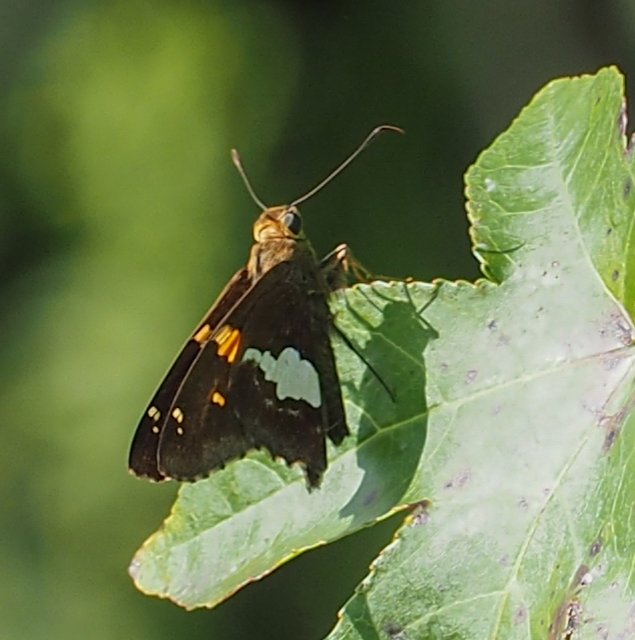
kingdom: Animalia
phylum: Arthropoda
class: Insecta
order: Lepidoptera
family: Hesperiidae
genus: Epargyreus
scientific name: Epargyreus clarus
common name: Silver-spotted Skipper
